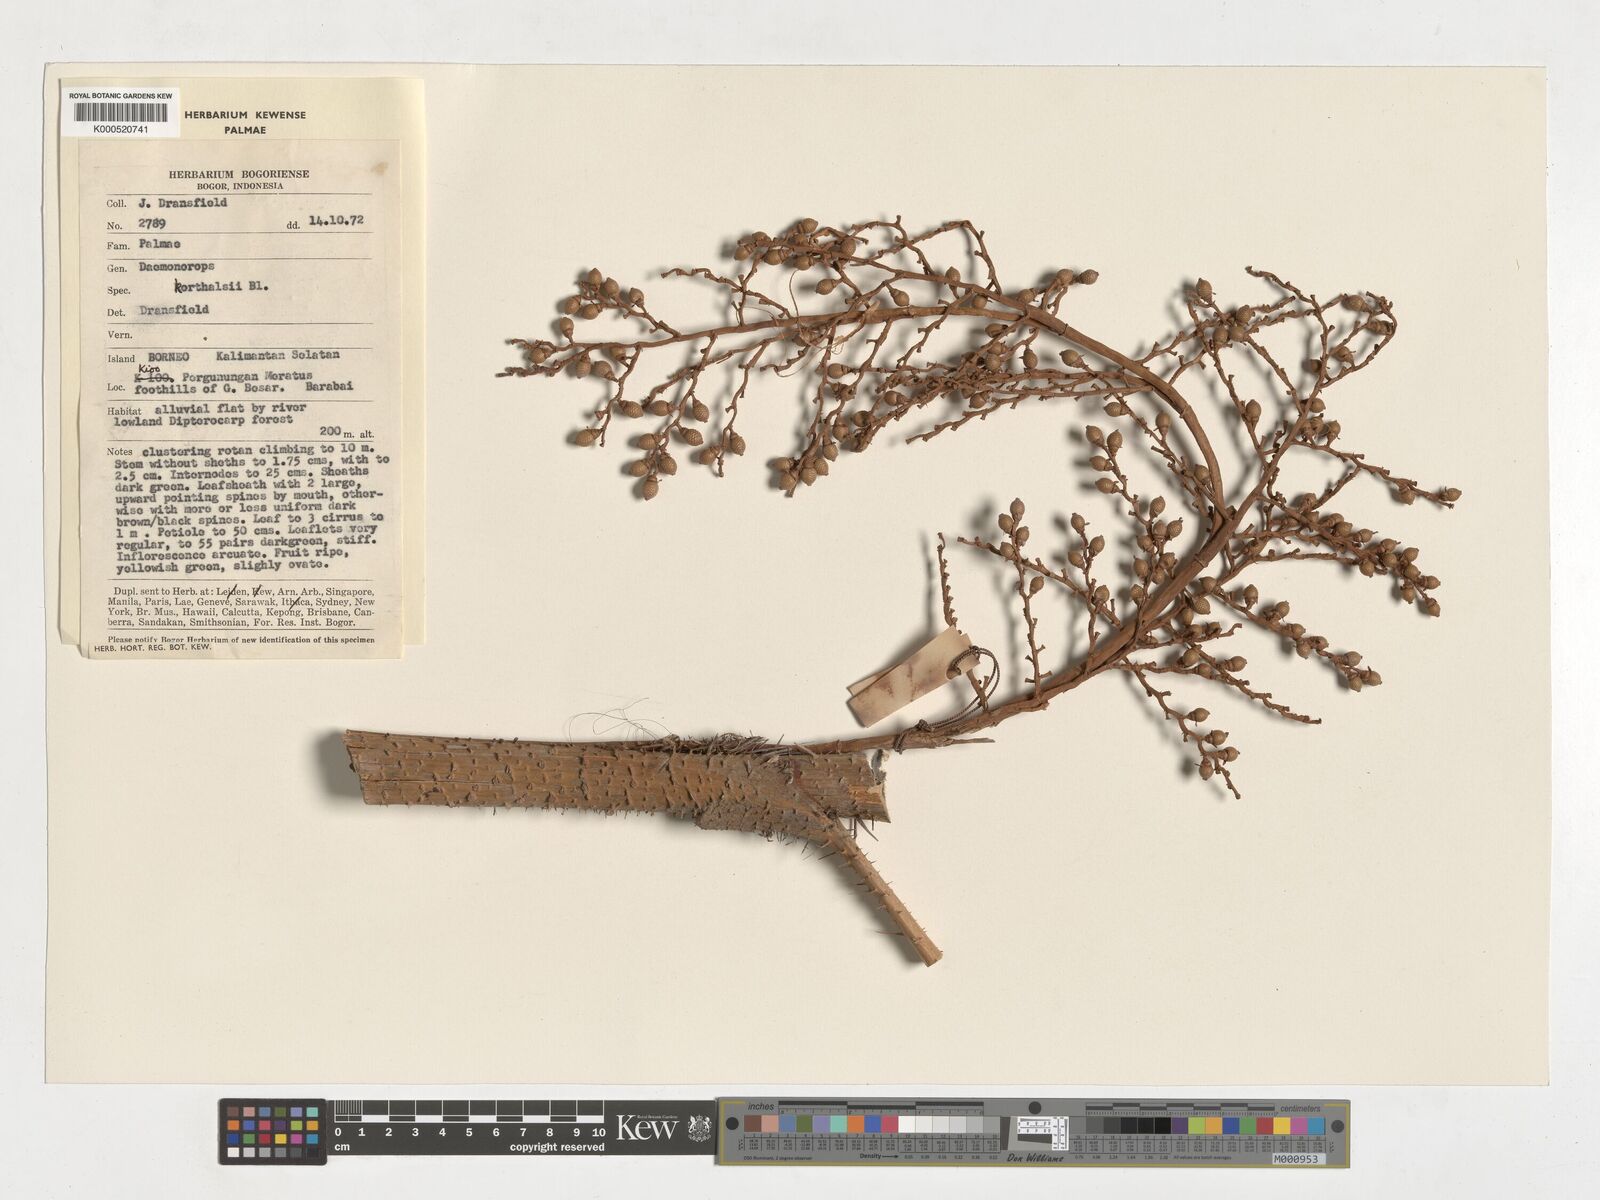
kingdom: Plantae
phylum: Tracheophyta
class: Liliopsida
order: Arecales
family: Arecaceae
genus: Calamus
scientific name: Calamus hirsutus
